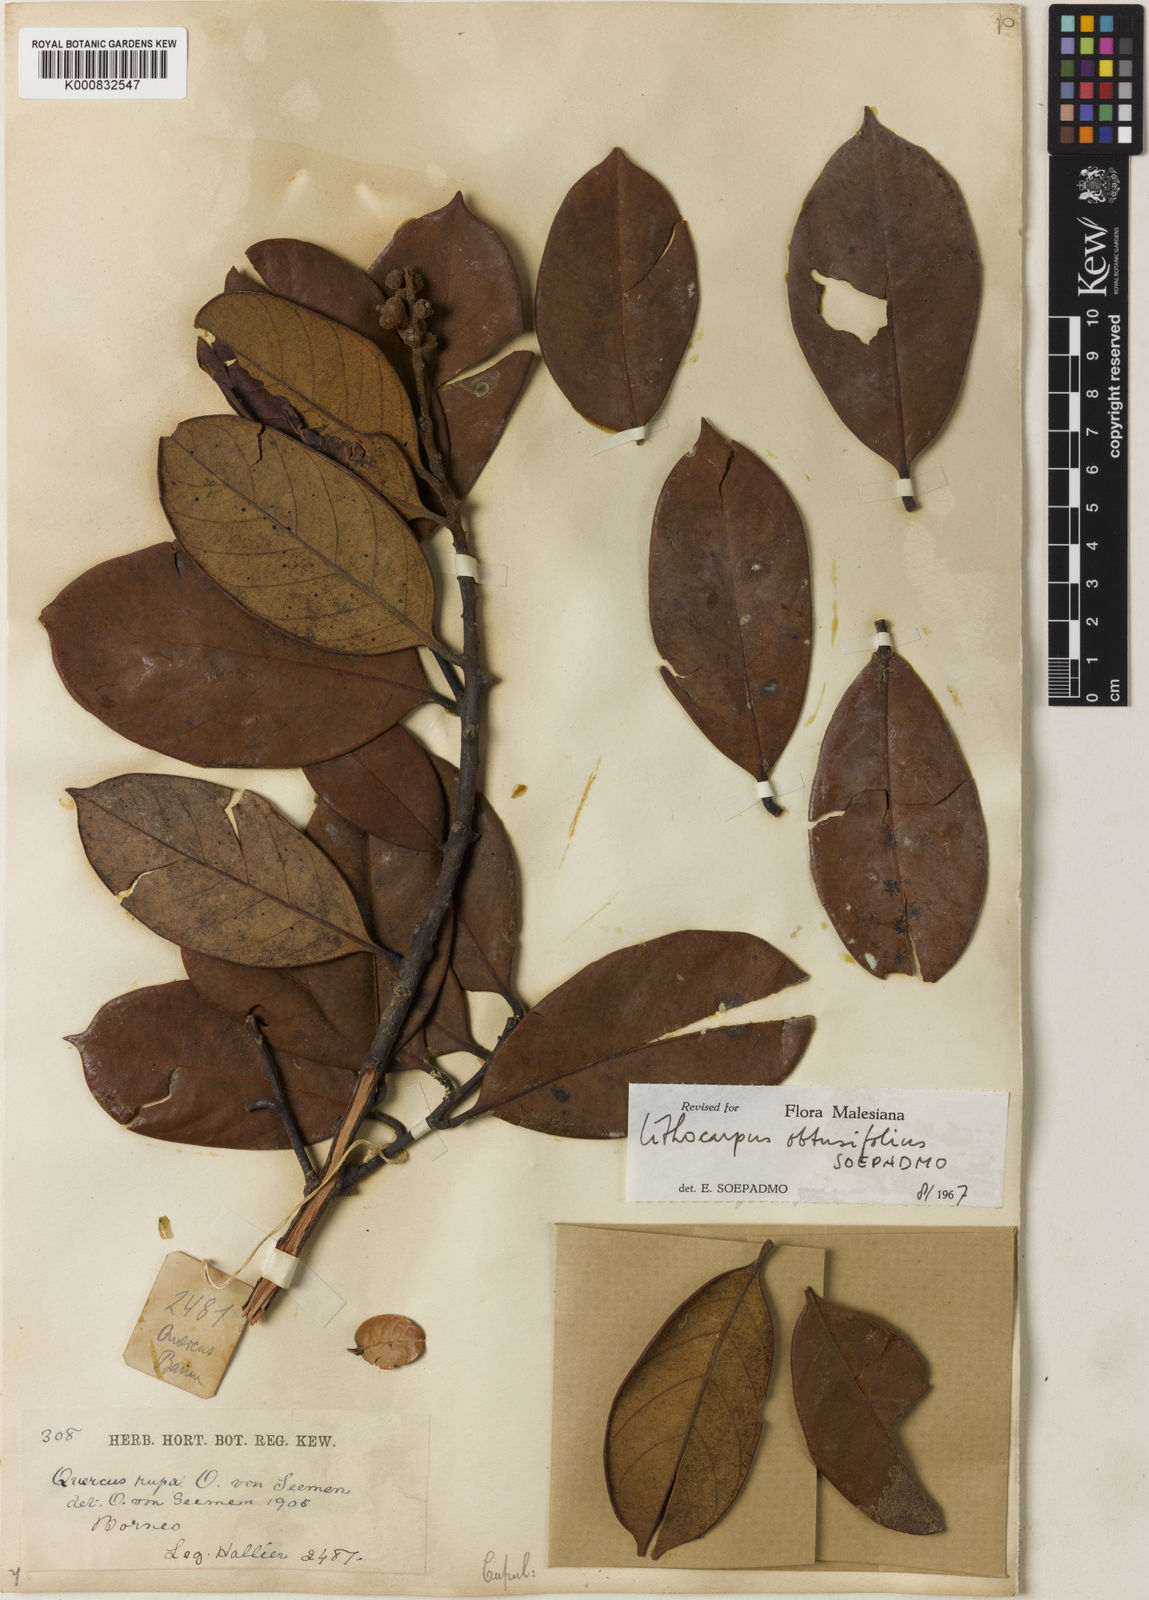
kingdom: Plantae
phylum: Tracheophyta
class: Magnoliopsida
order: Fagales
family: Fagaceae
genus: Lithocarpus
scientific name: Lithocarpus rufus
